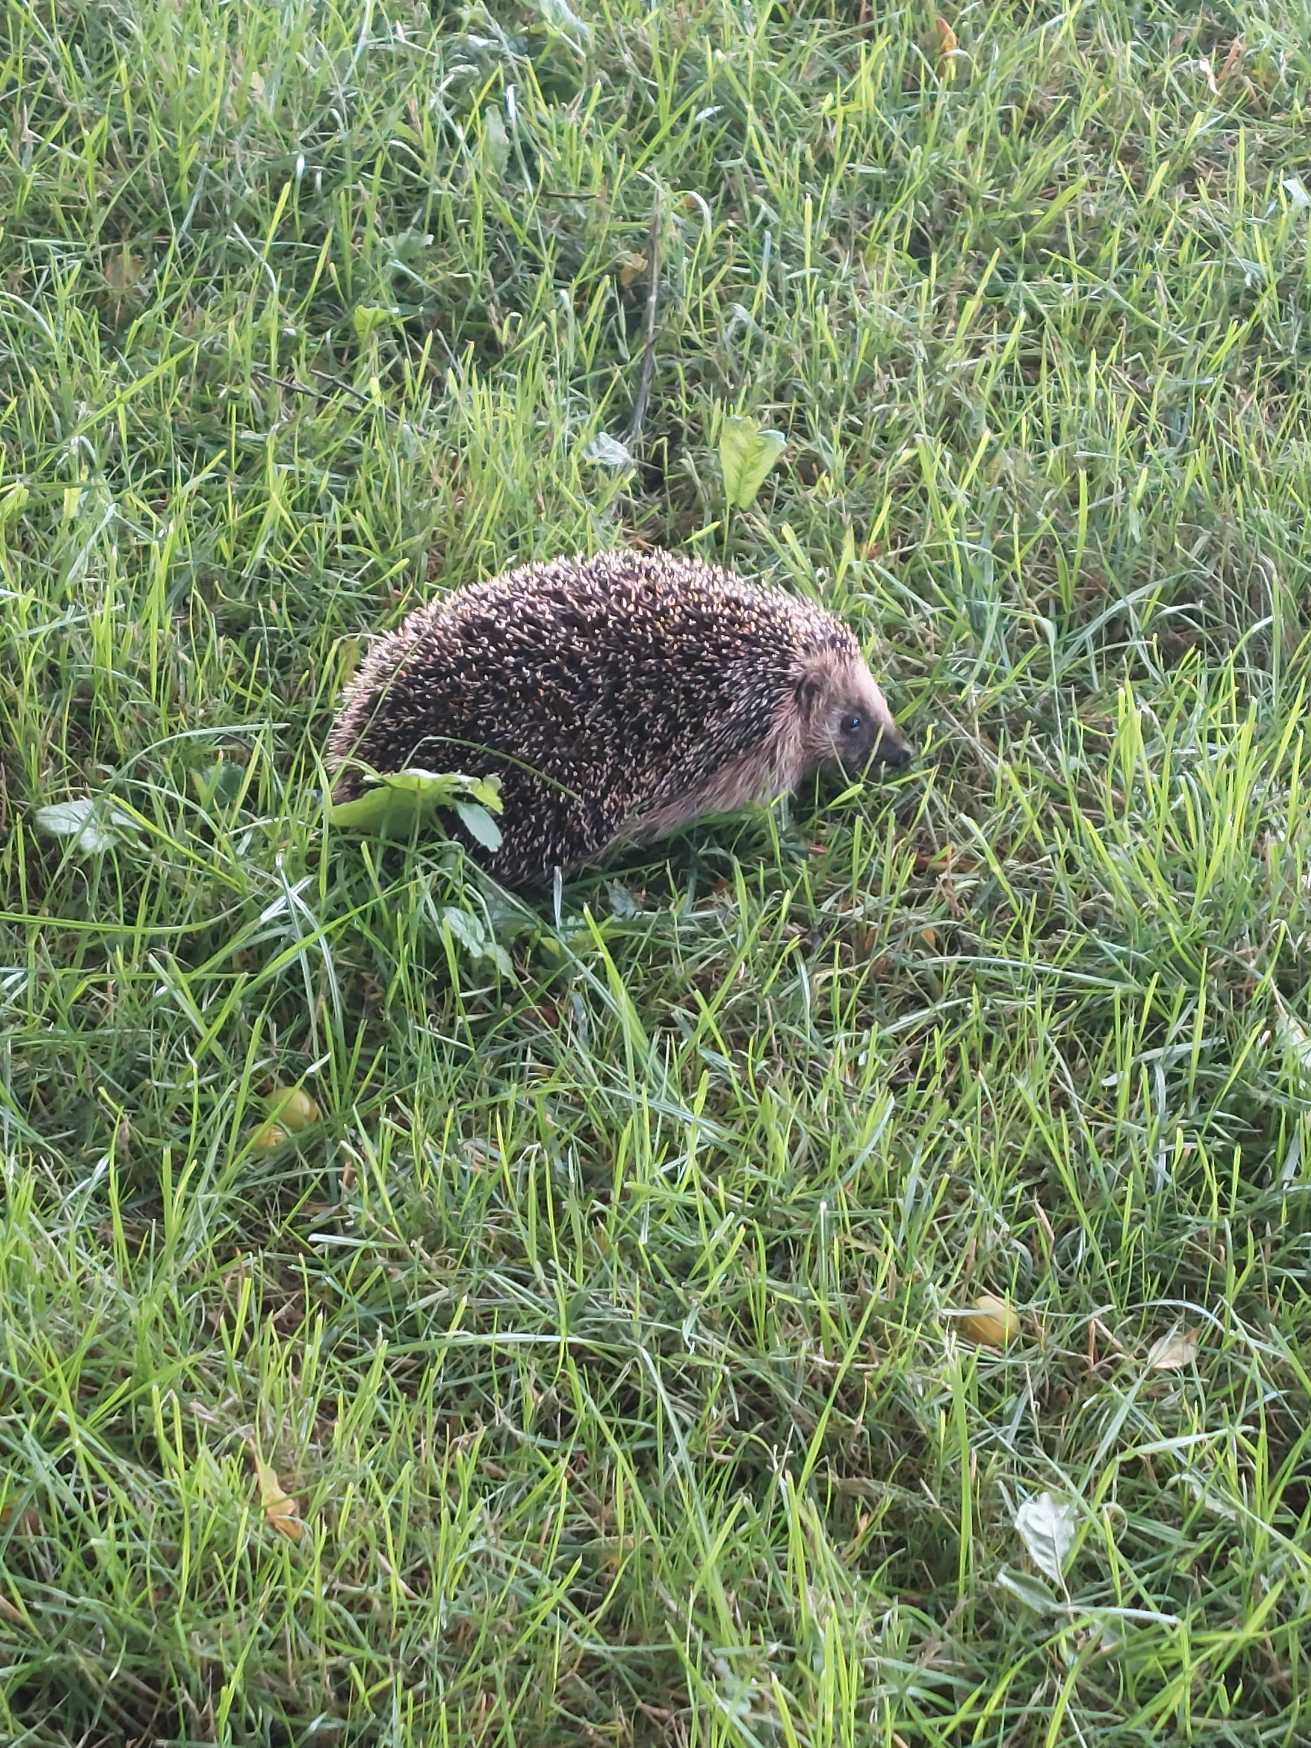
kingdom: Animalia
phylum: Chordata
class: Mammalia
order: Erinaceomorpha
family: Erinaceidae
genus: Erinaceus
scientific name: Erinaceus europaeus
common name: Pindsvin
